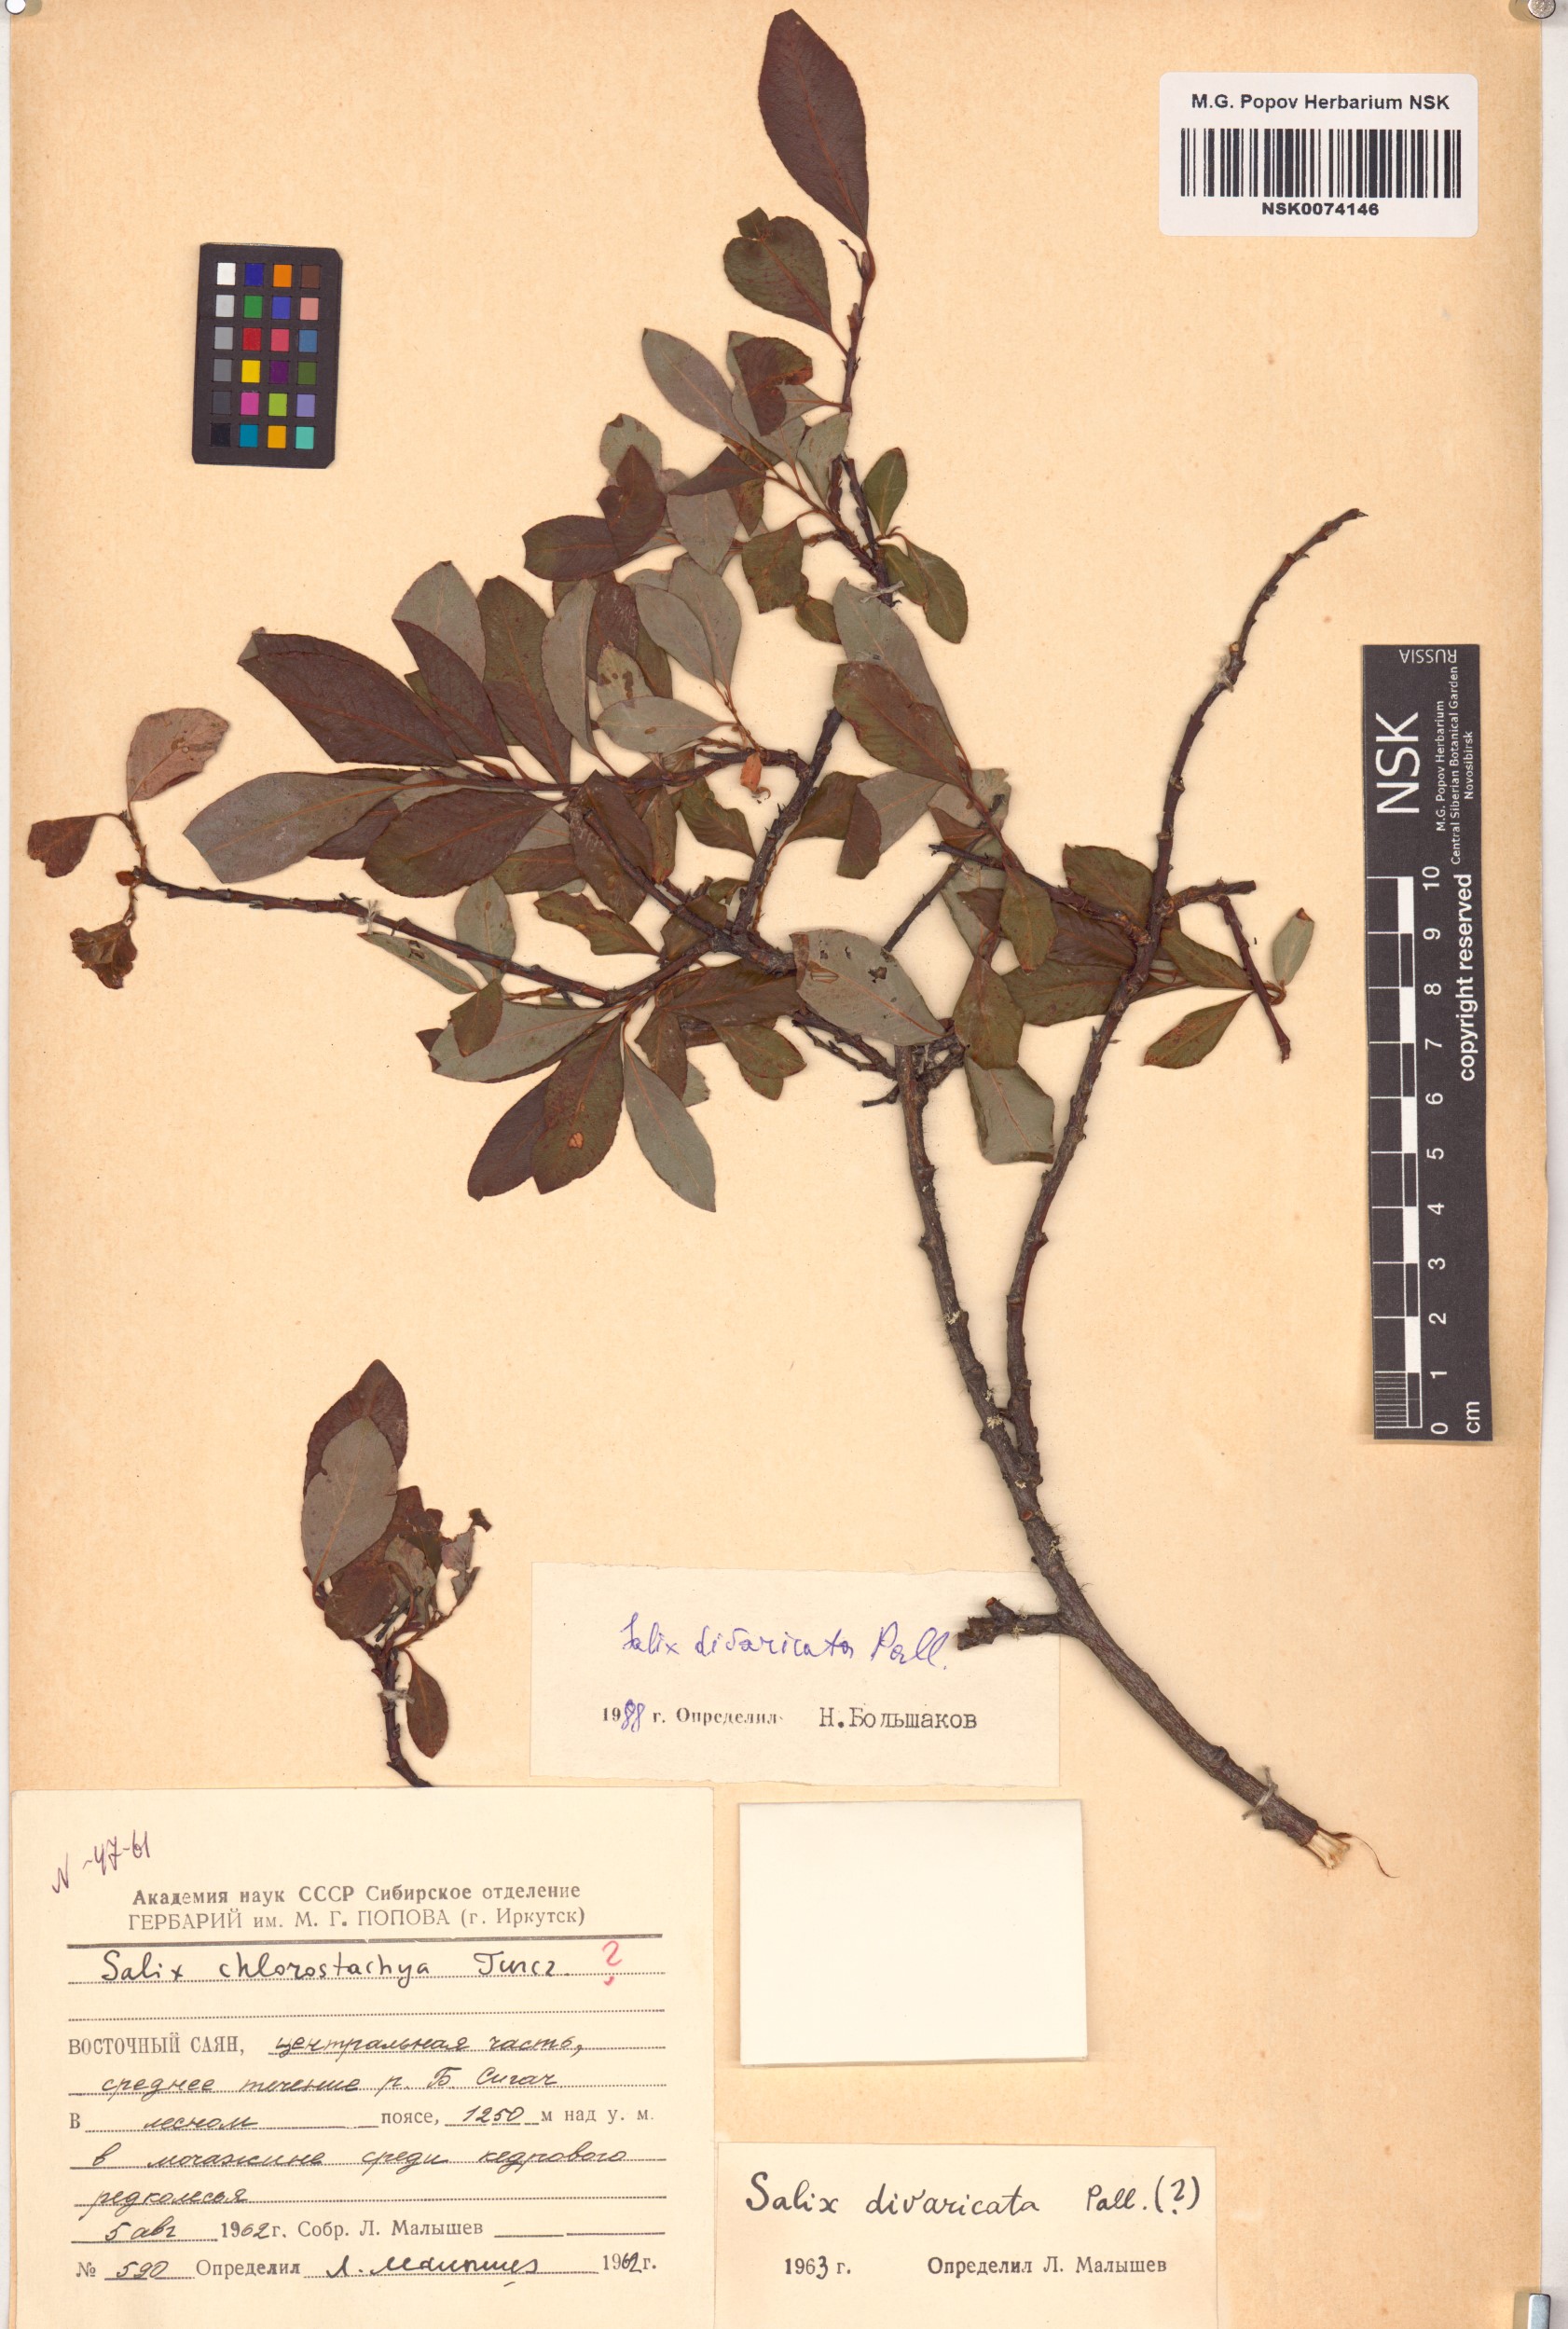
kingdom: Plantae
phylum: Tracheophyta
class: Magnoliopsida
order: Malpighiales
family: Salicaceae
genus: Salix
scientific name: Salix divaricata
